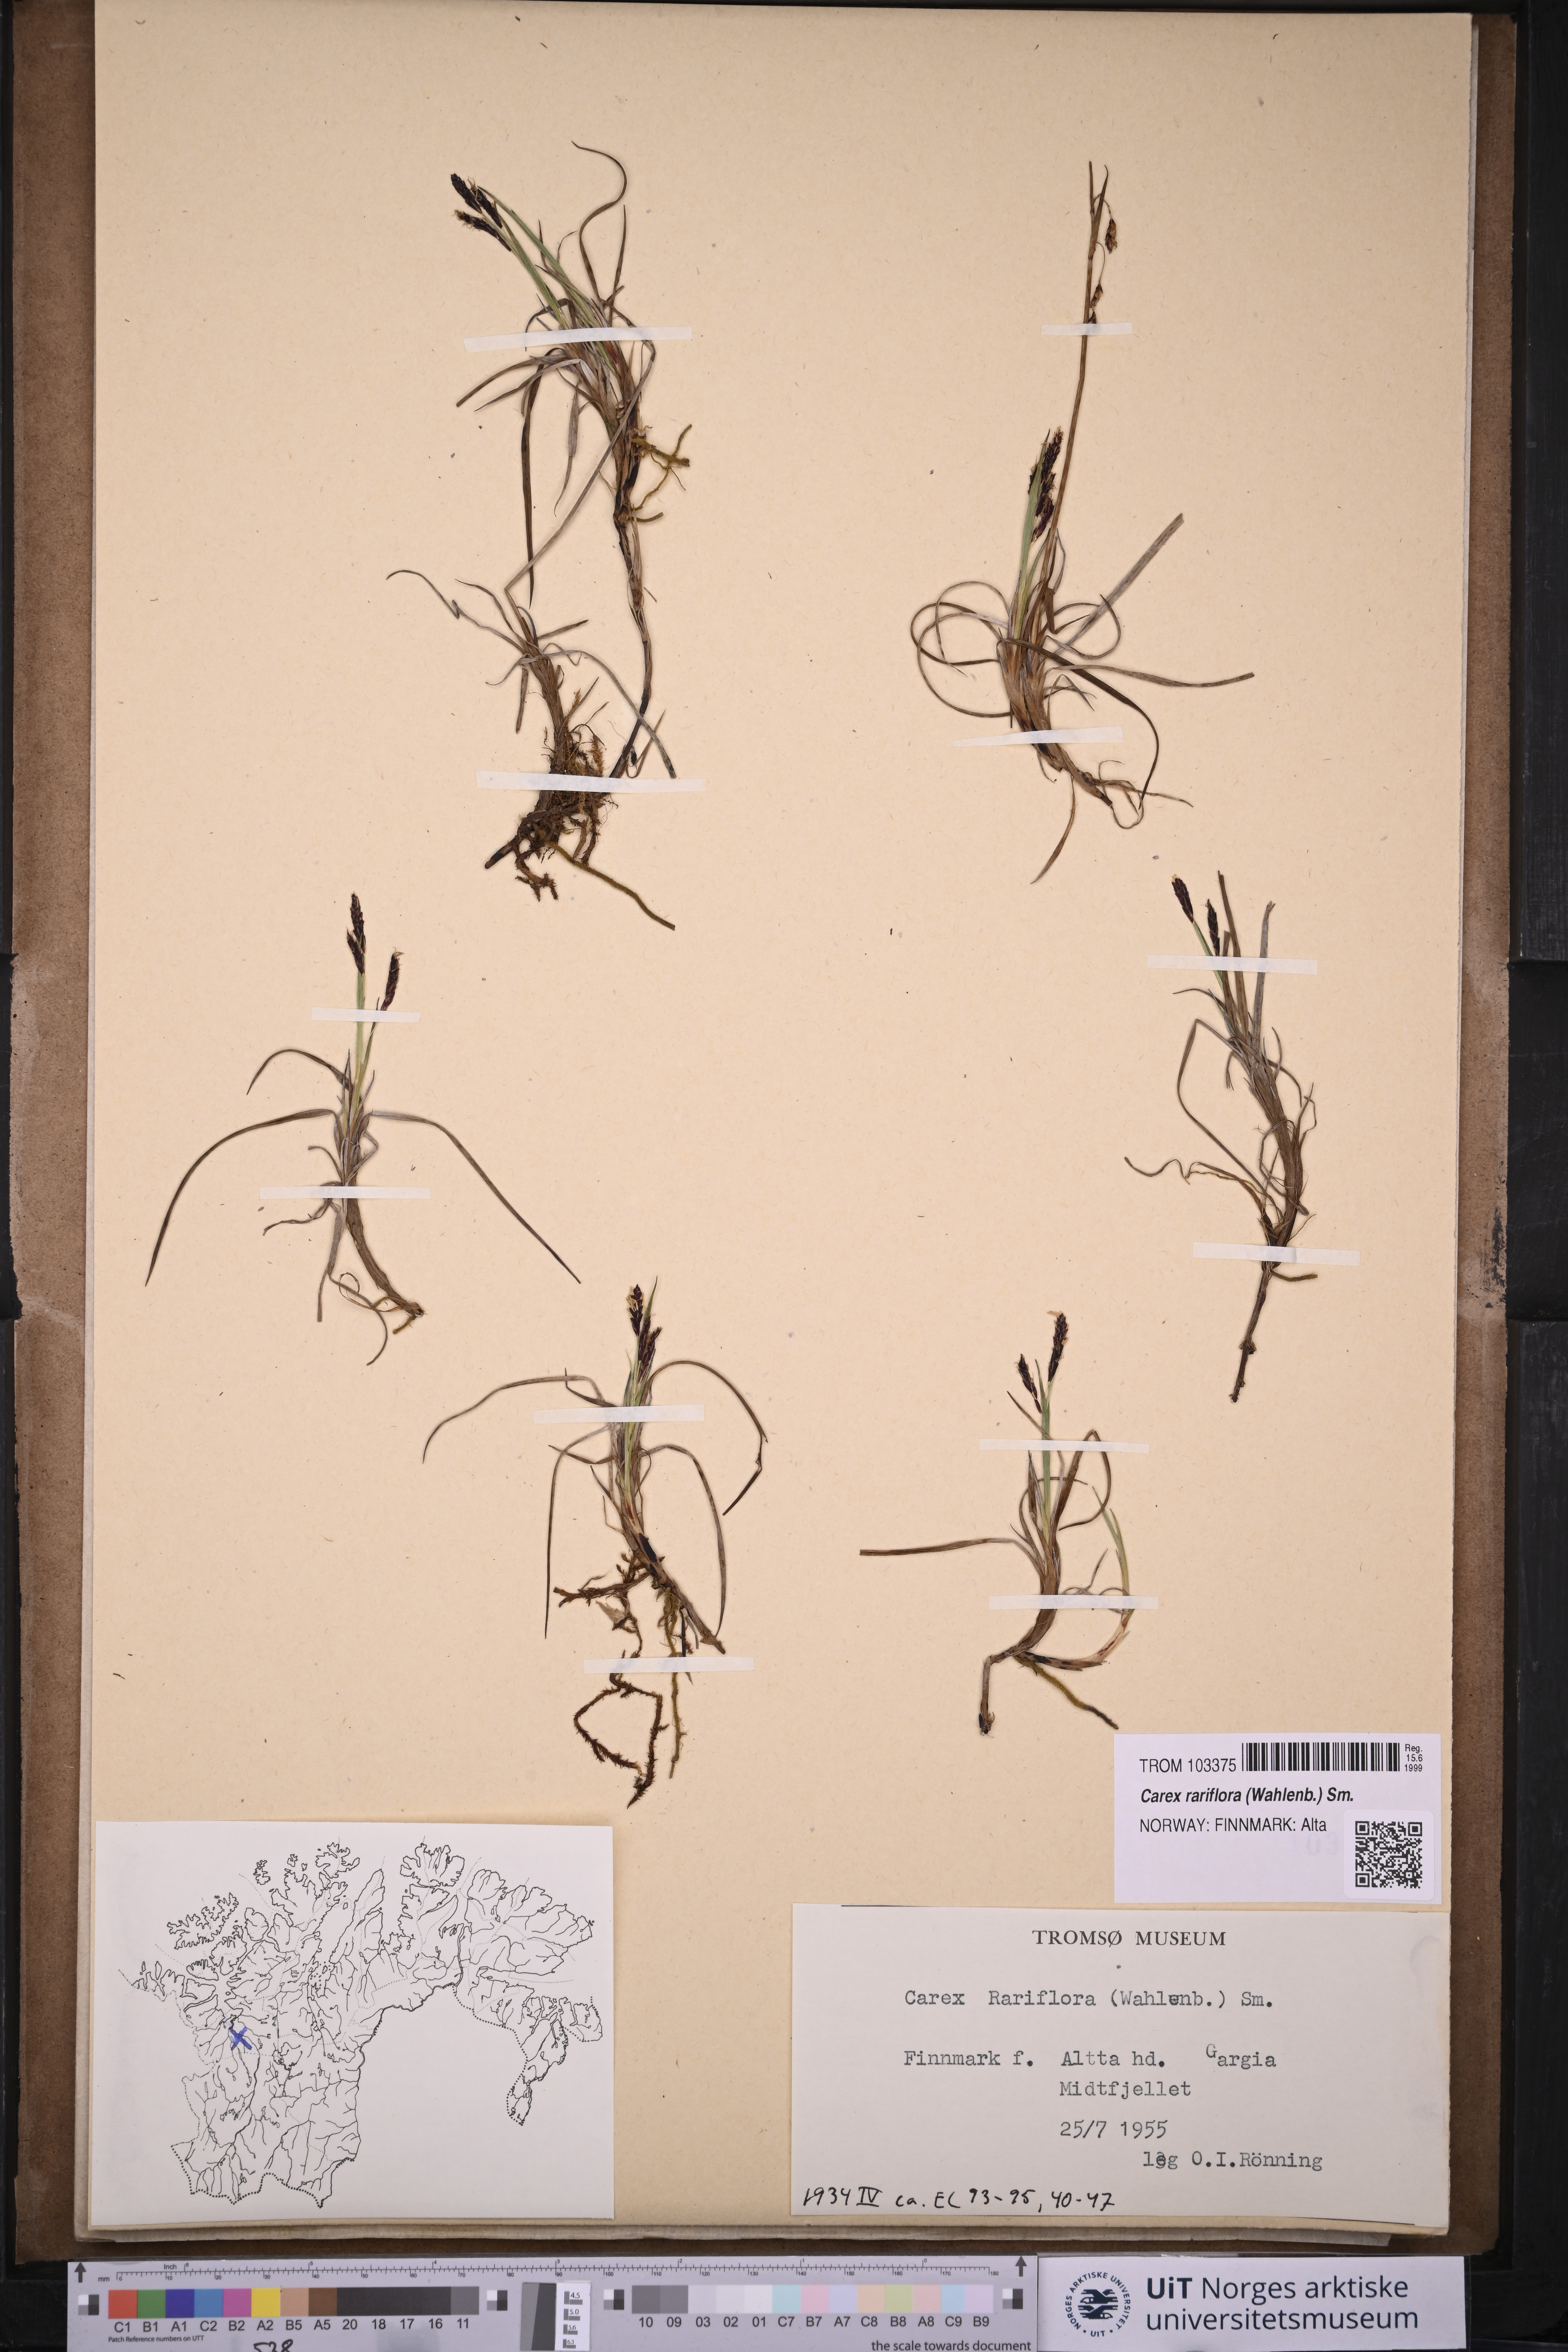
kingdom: Plantae
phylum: Tracheophyta
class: Liliopsida
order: Poales
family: Cyperaceae
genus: Carex
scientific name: Carex rariflora
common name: Loose-flowered alpine sedge
